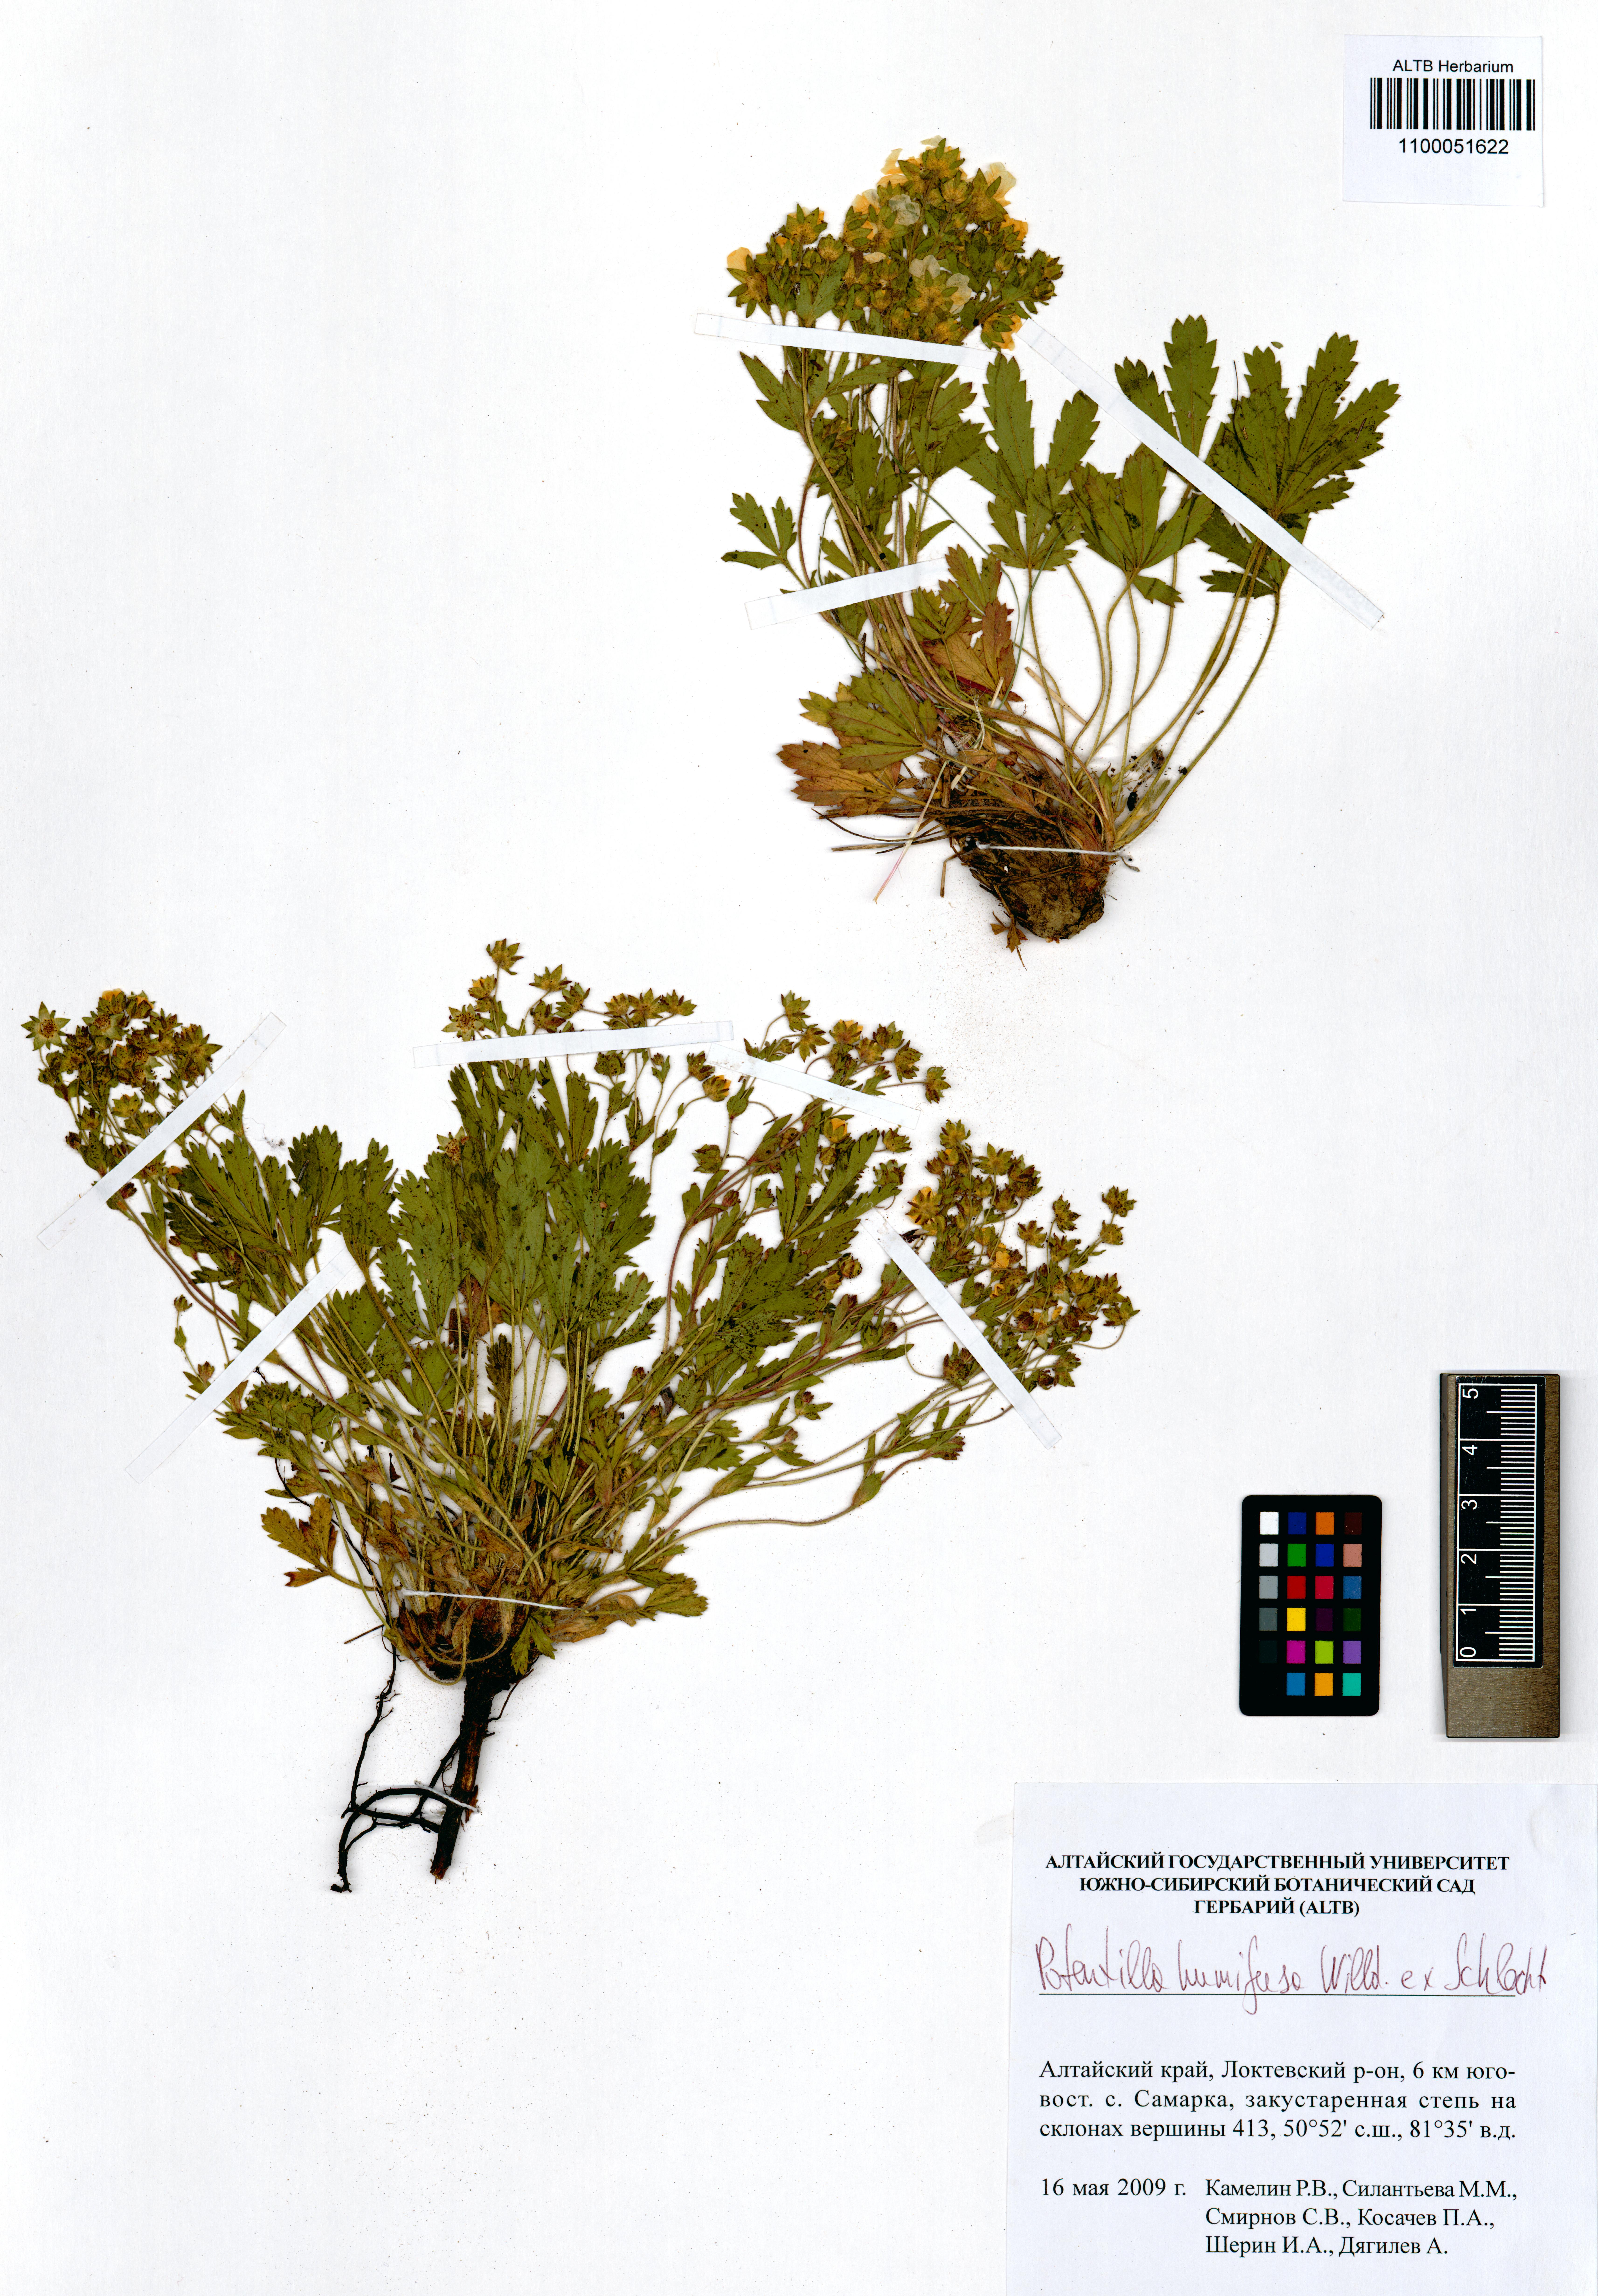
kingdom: Plantae
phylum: Tracheophyta
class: Magnoliopsida
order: Rosales
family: Rosaceae
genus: Potentilla
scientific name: Potentilla humifusa
